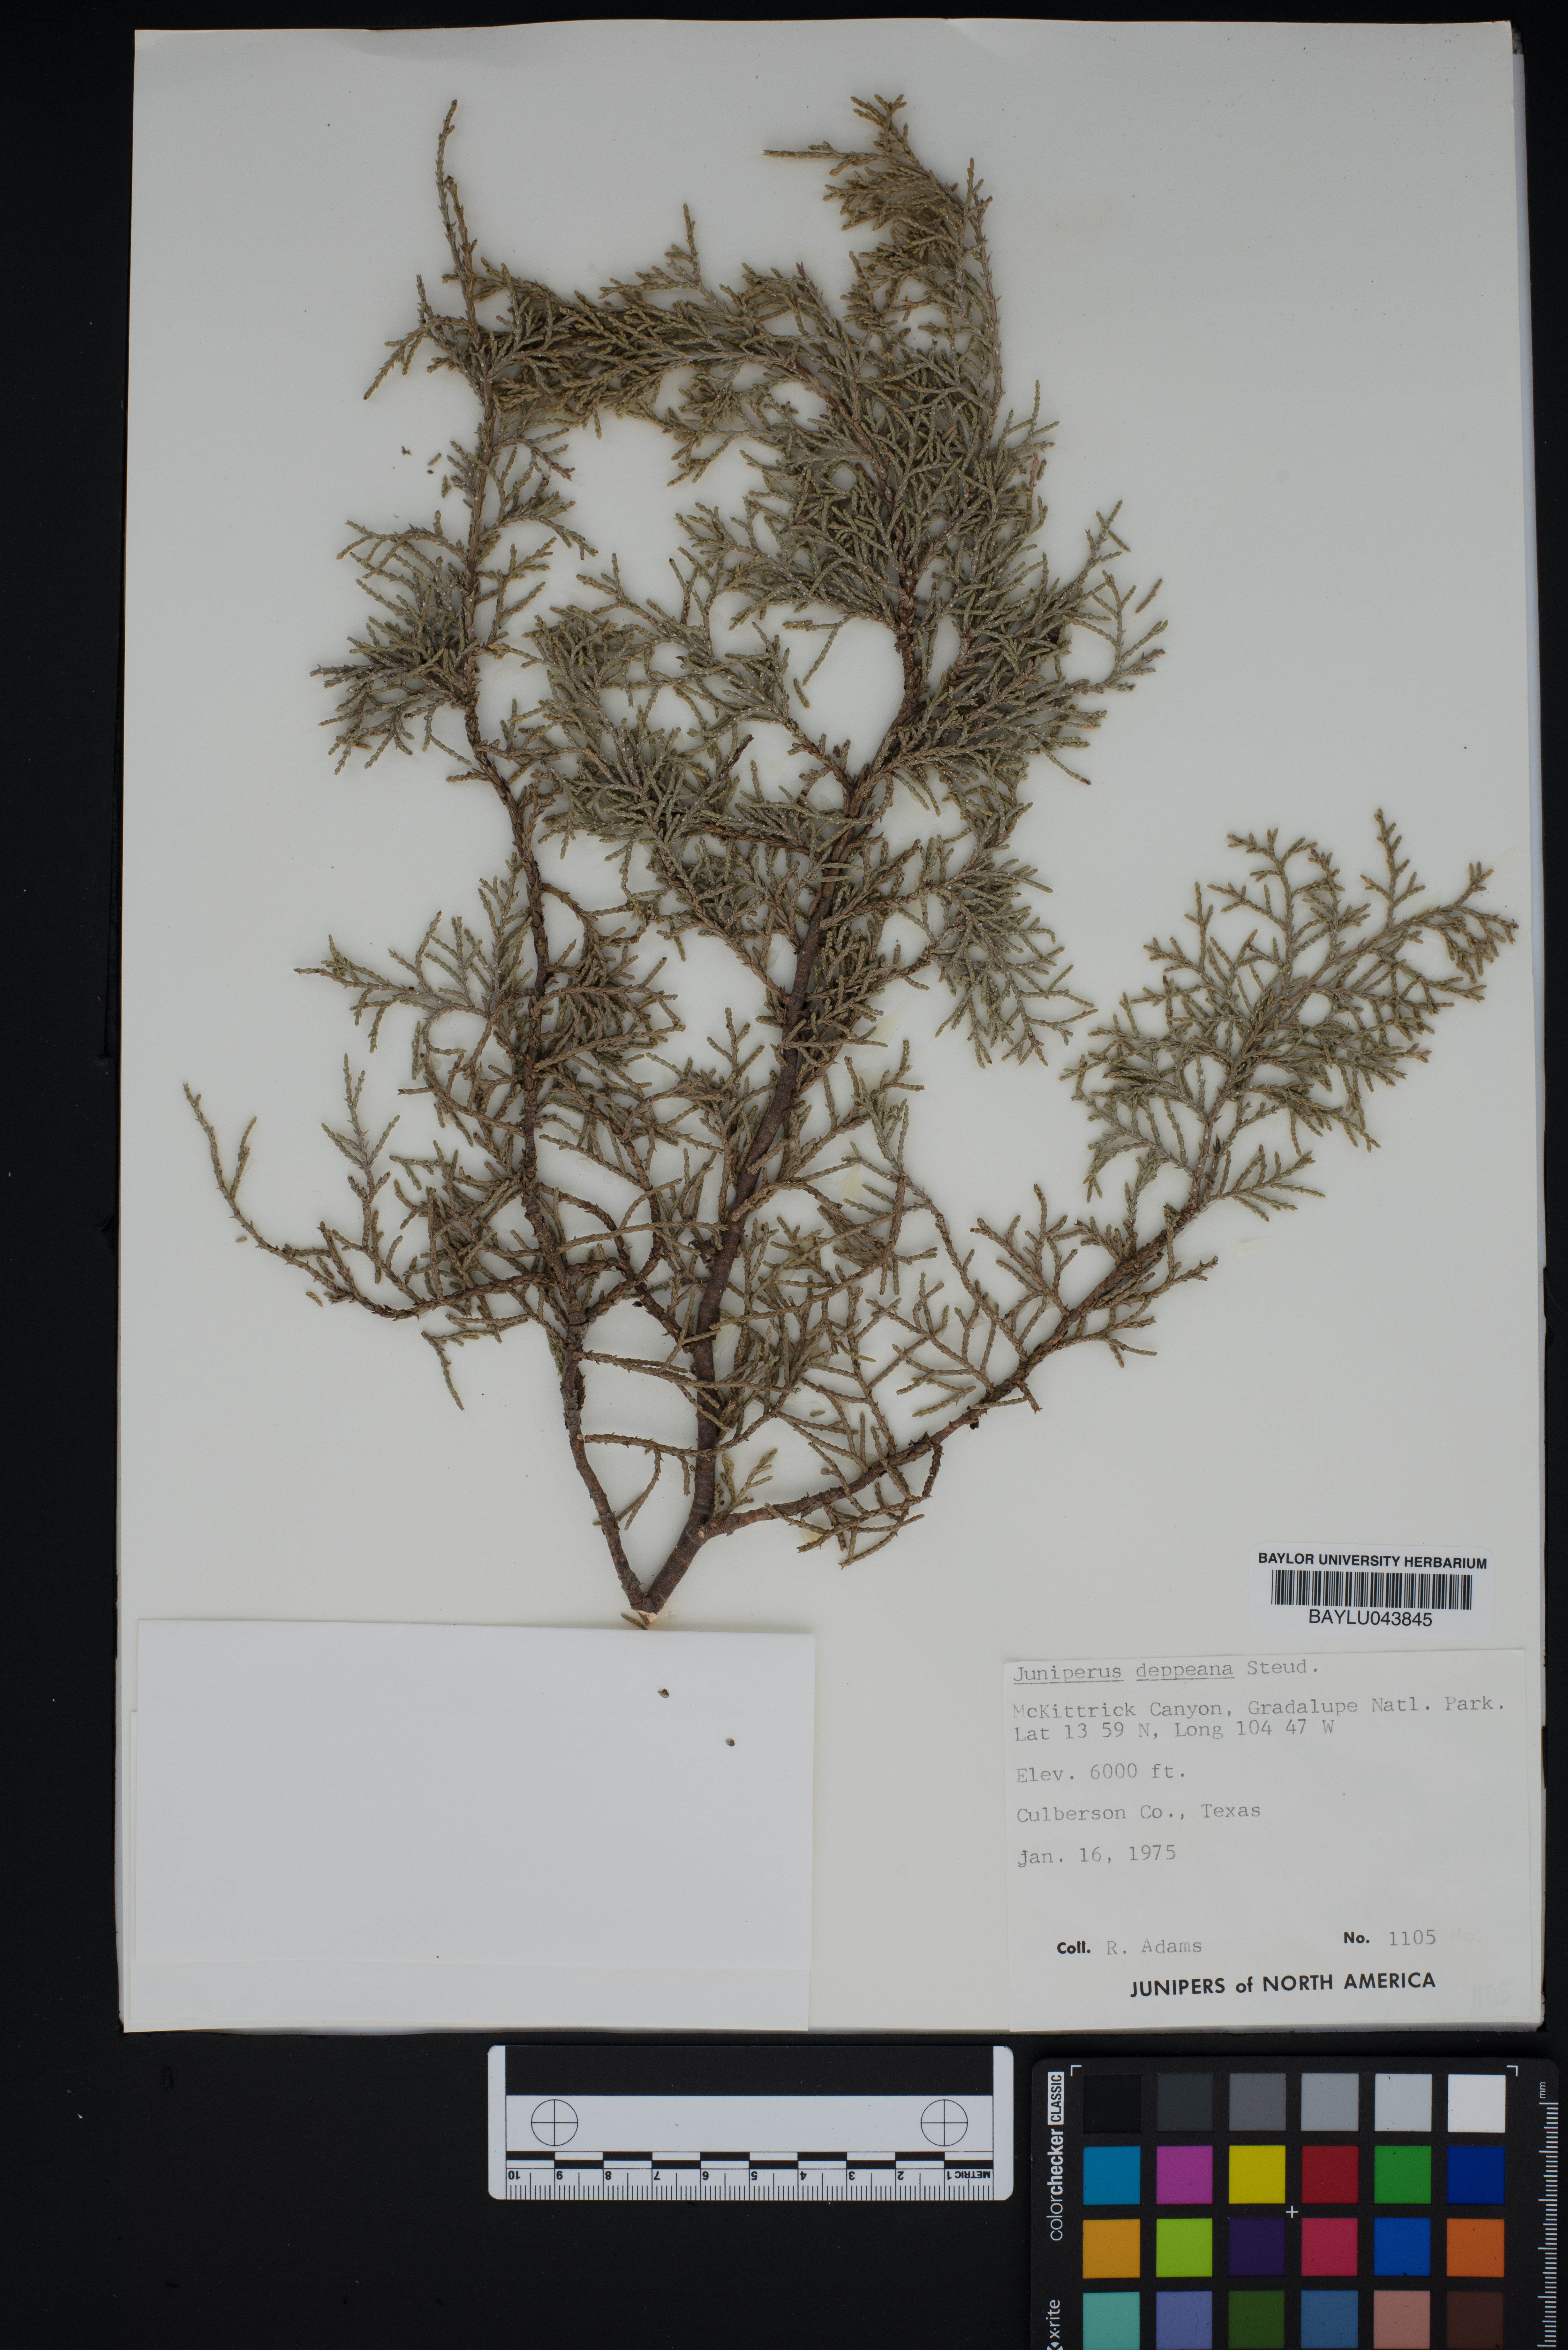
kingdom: Plantae
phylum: Tracheophyta
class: Pinopsida
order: Pinales
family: Cupressaceae
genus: Juniperus
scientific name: Juniperus deppeana
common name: Alligator juniper
